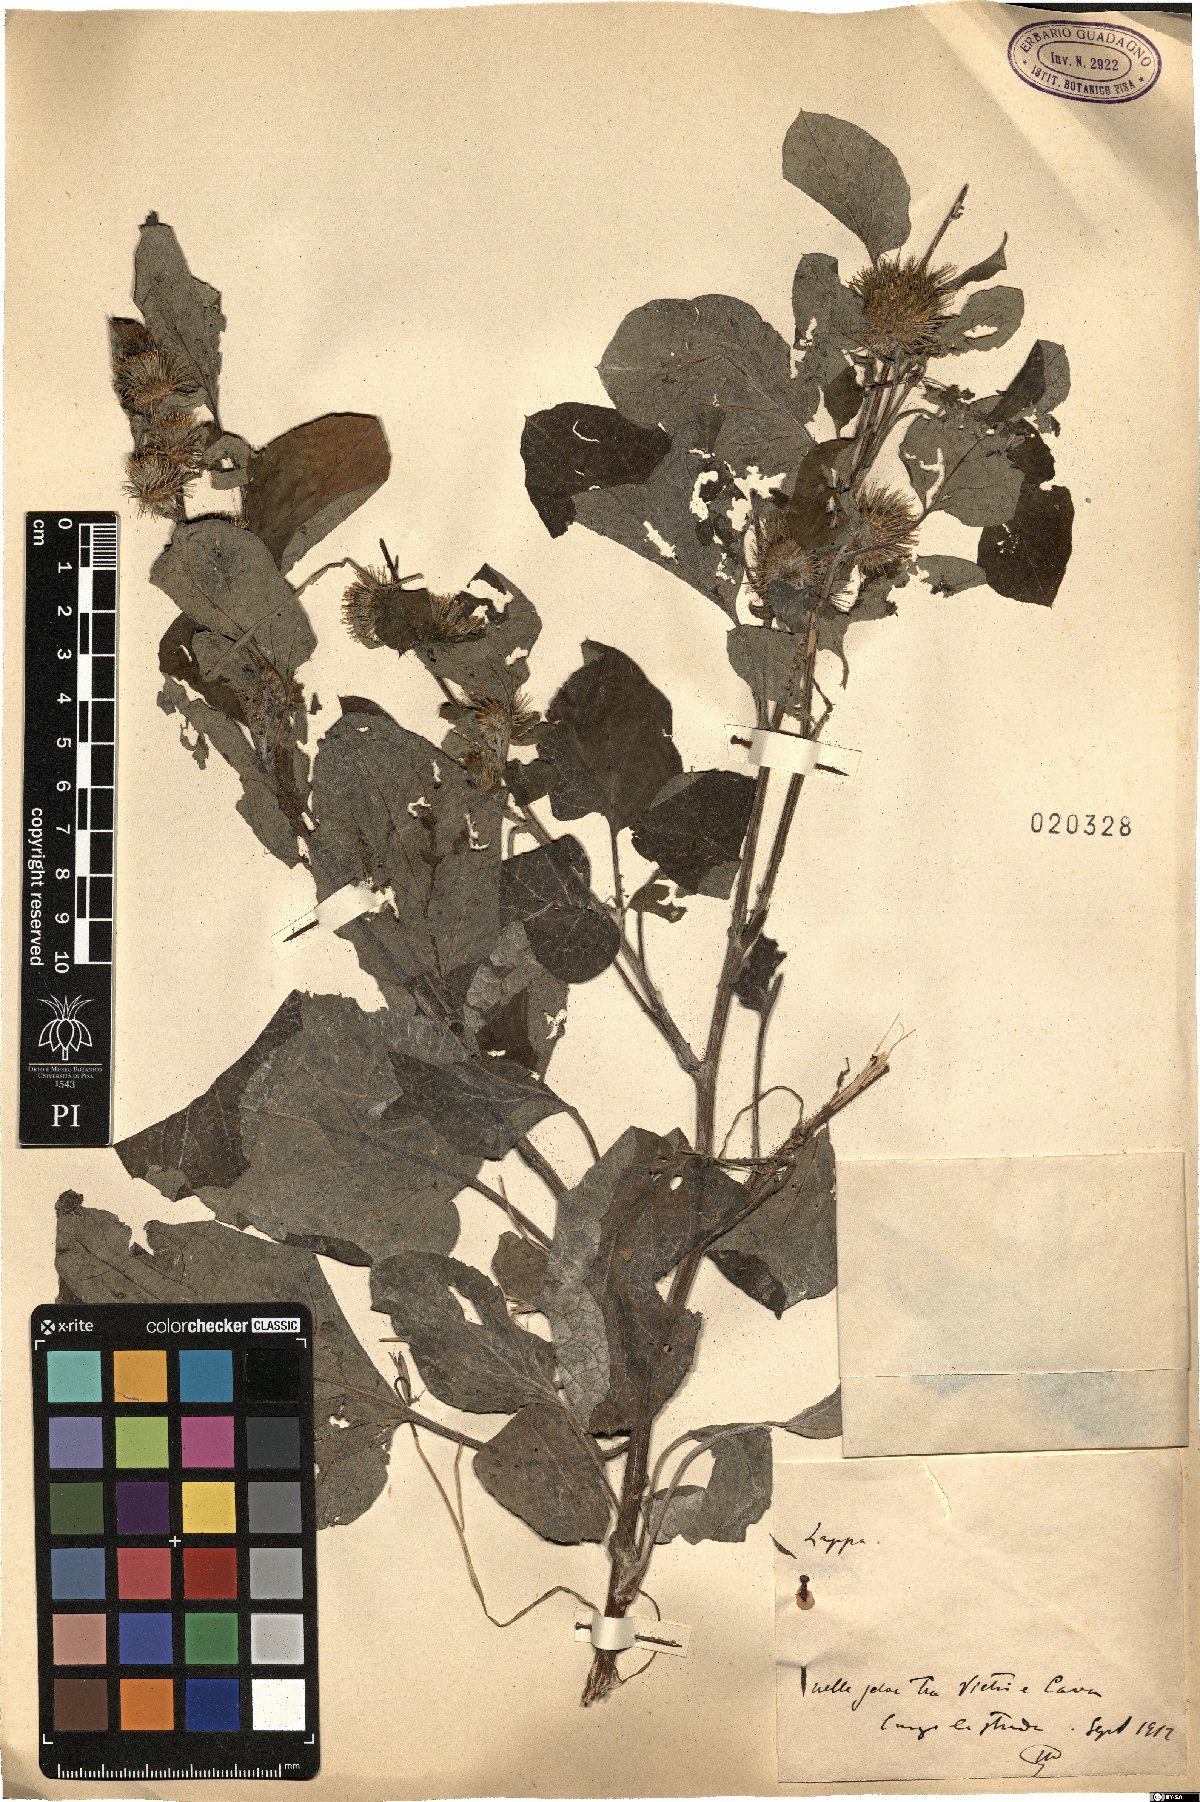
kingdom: Plantae
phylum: Tracheophyta
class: Magnoliopsida
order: Asterales
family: Asteraceae
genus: Arctium
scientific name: Arctium
